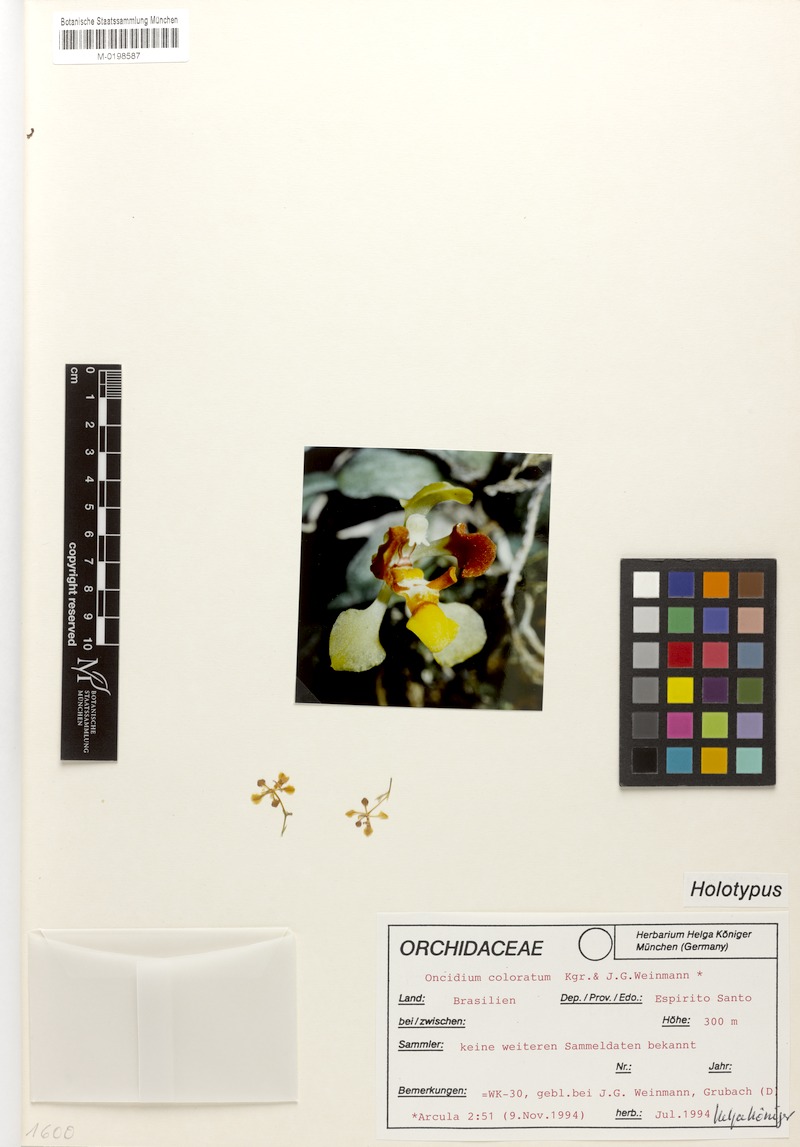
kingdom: Plantae
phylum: Tracheophyta
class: Liliopsida
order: Asparagales
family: Orchidaceae
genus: Gomesa
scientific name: Gomesa colorata
